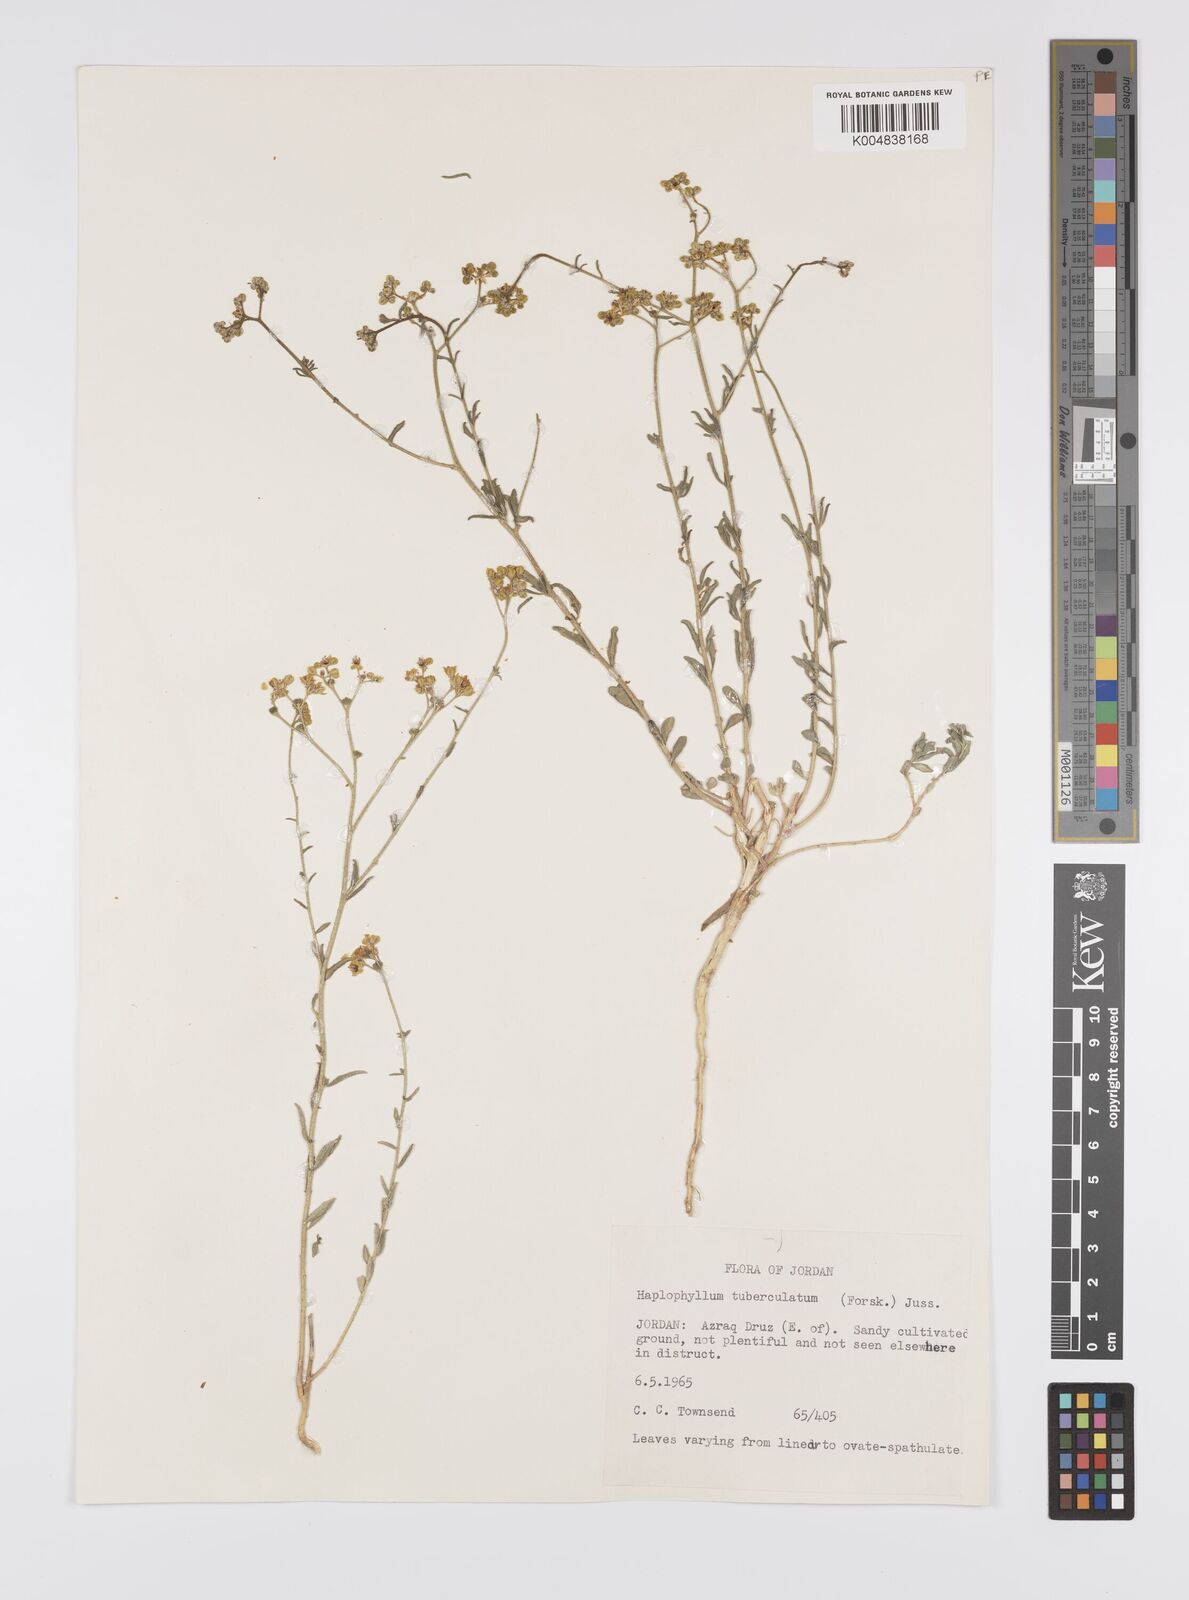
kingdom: Plantae
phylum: Tracheophyta
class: Magnoliopsida
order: Sapindales
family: Rutaceae
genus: Haplophyllum
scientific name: Haplophyllum tuberculatum
